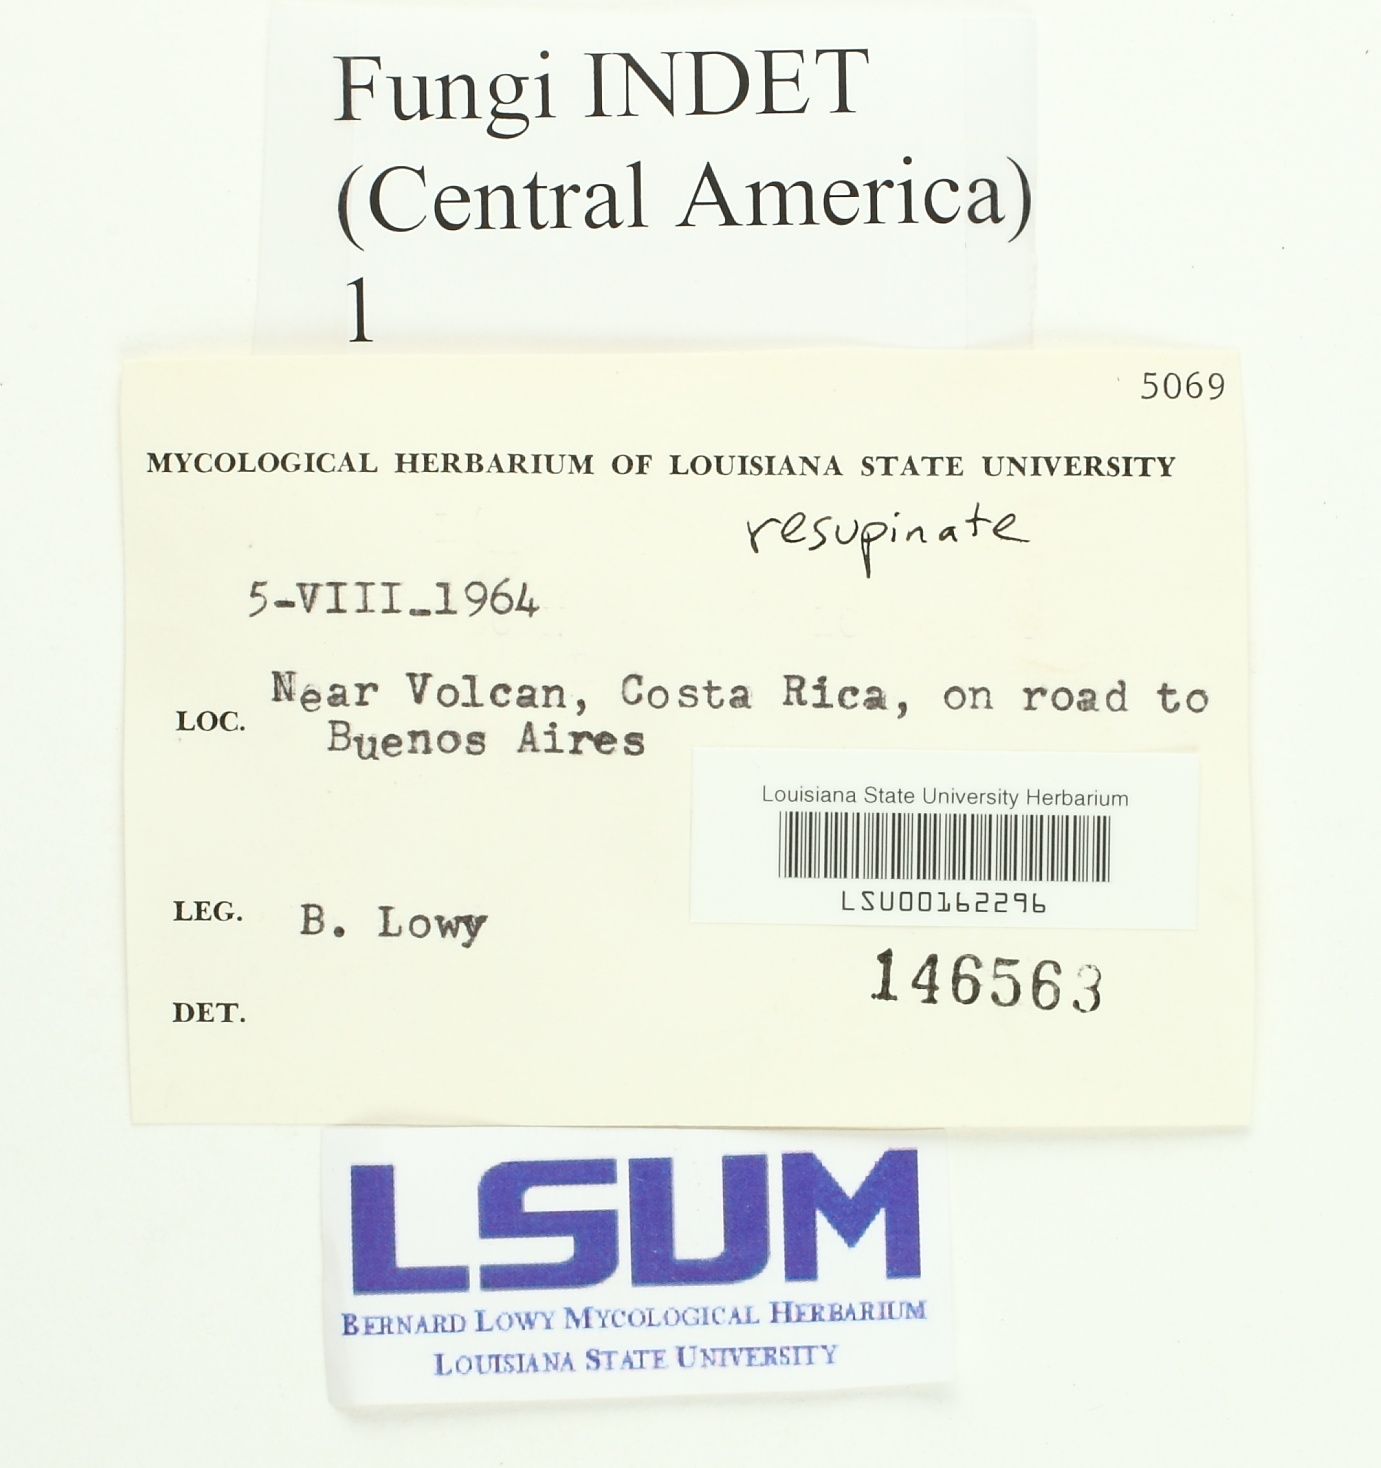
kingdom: Fungi
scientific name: Fungi
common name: Fungi
